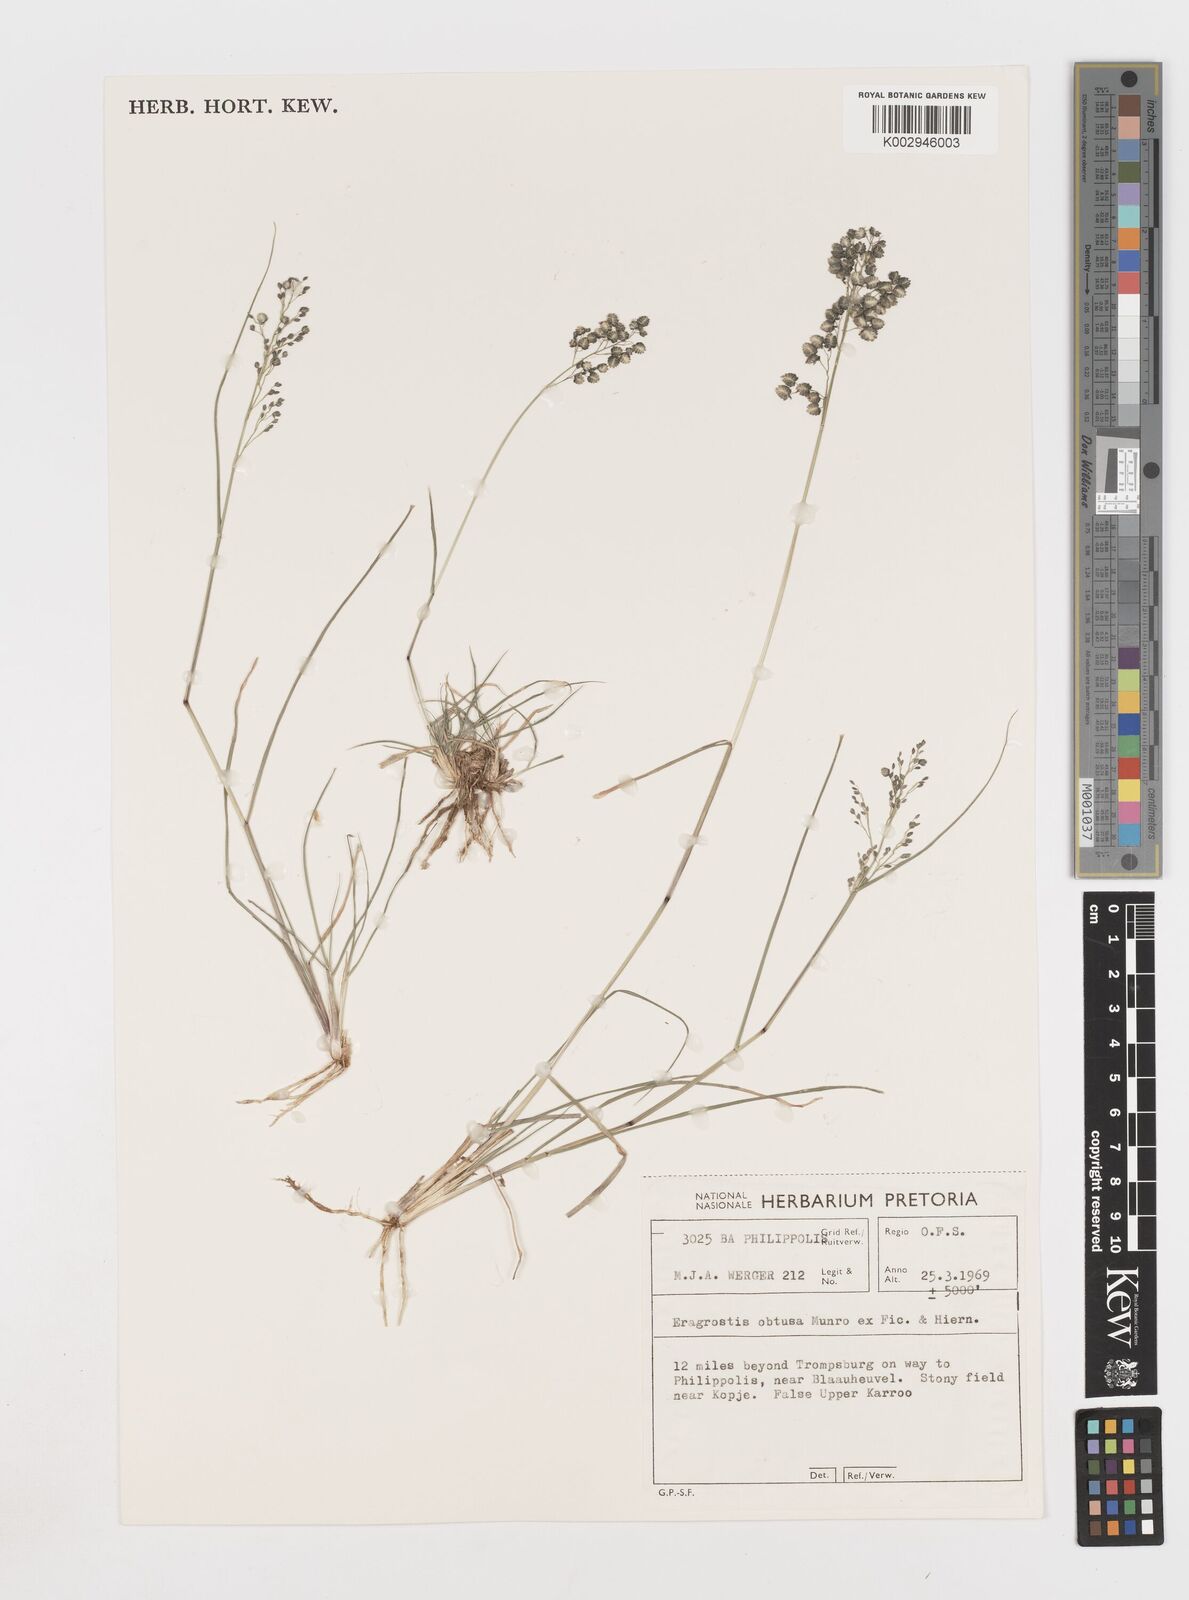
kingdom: Plantae
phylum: Tracheophyta
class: Liliopsida
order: Poales
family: Poaceae
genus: Eragrostis
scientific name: Eragrostis obtusa
